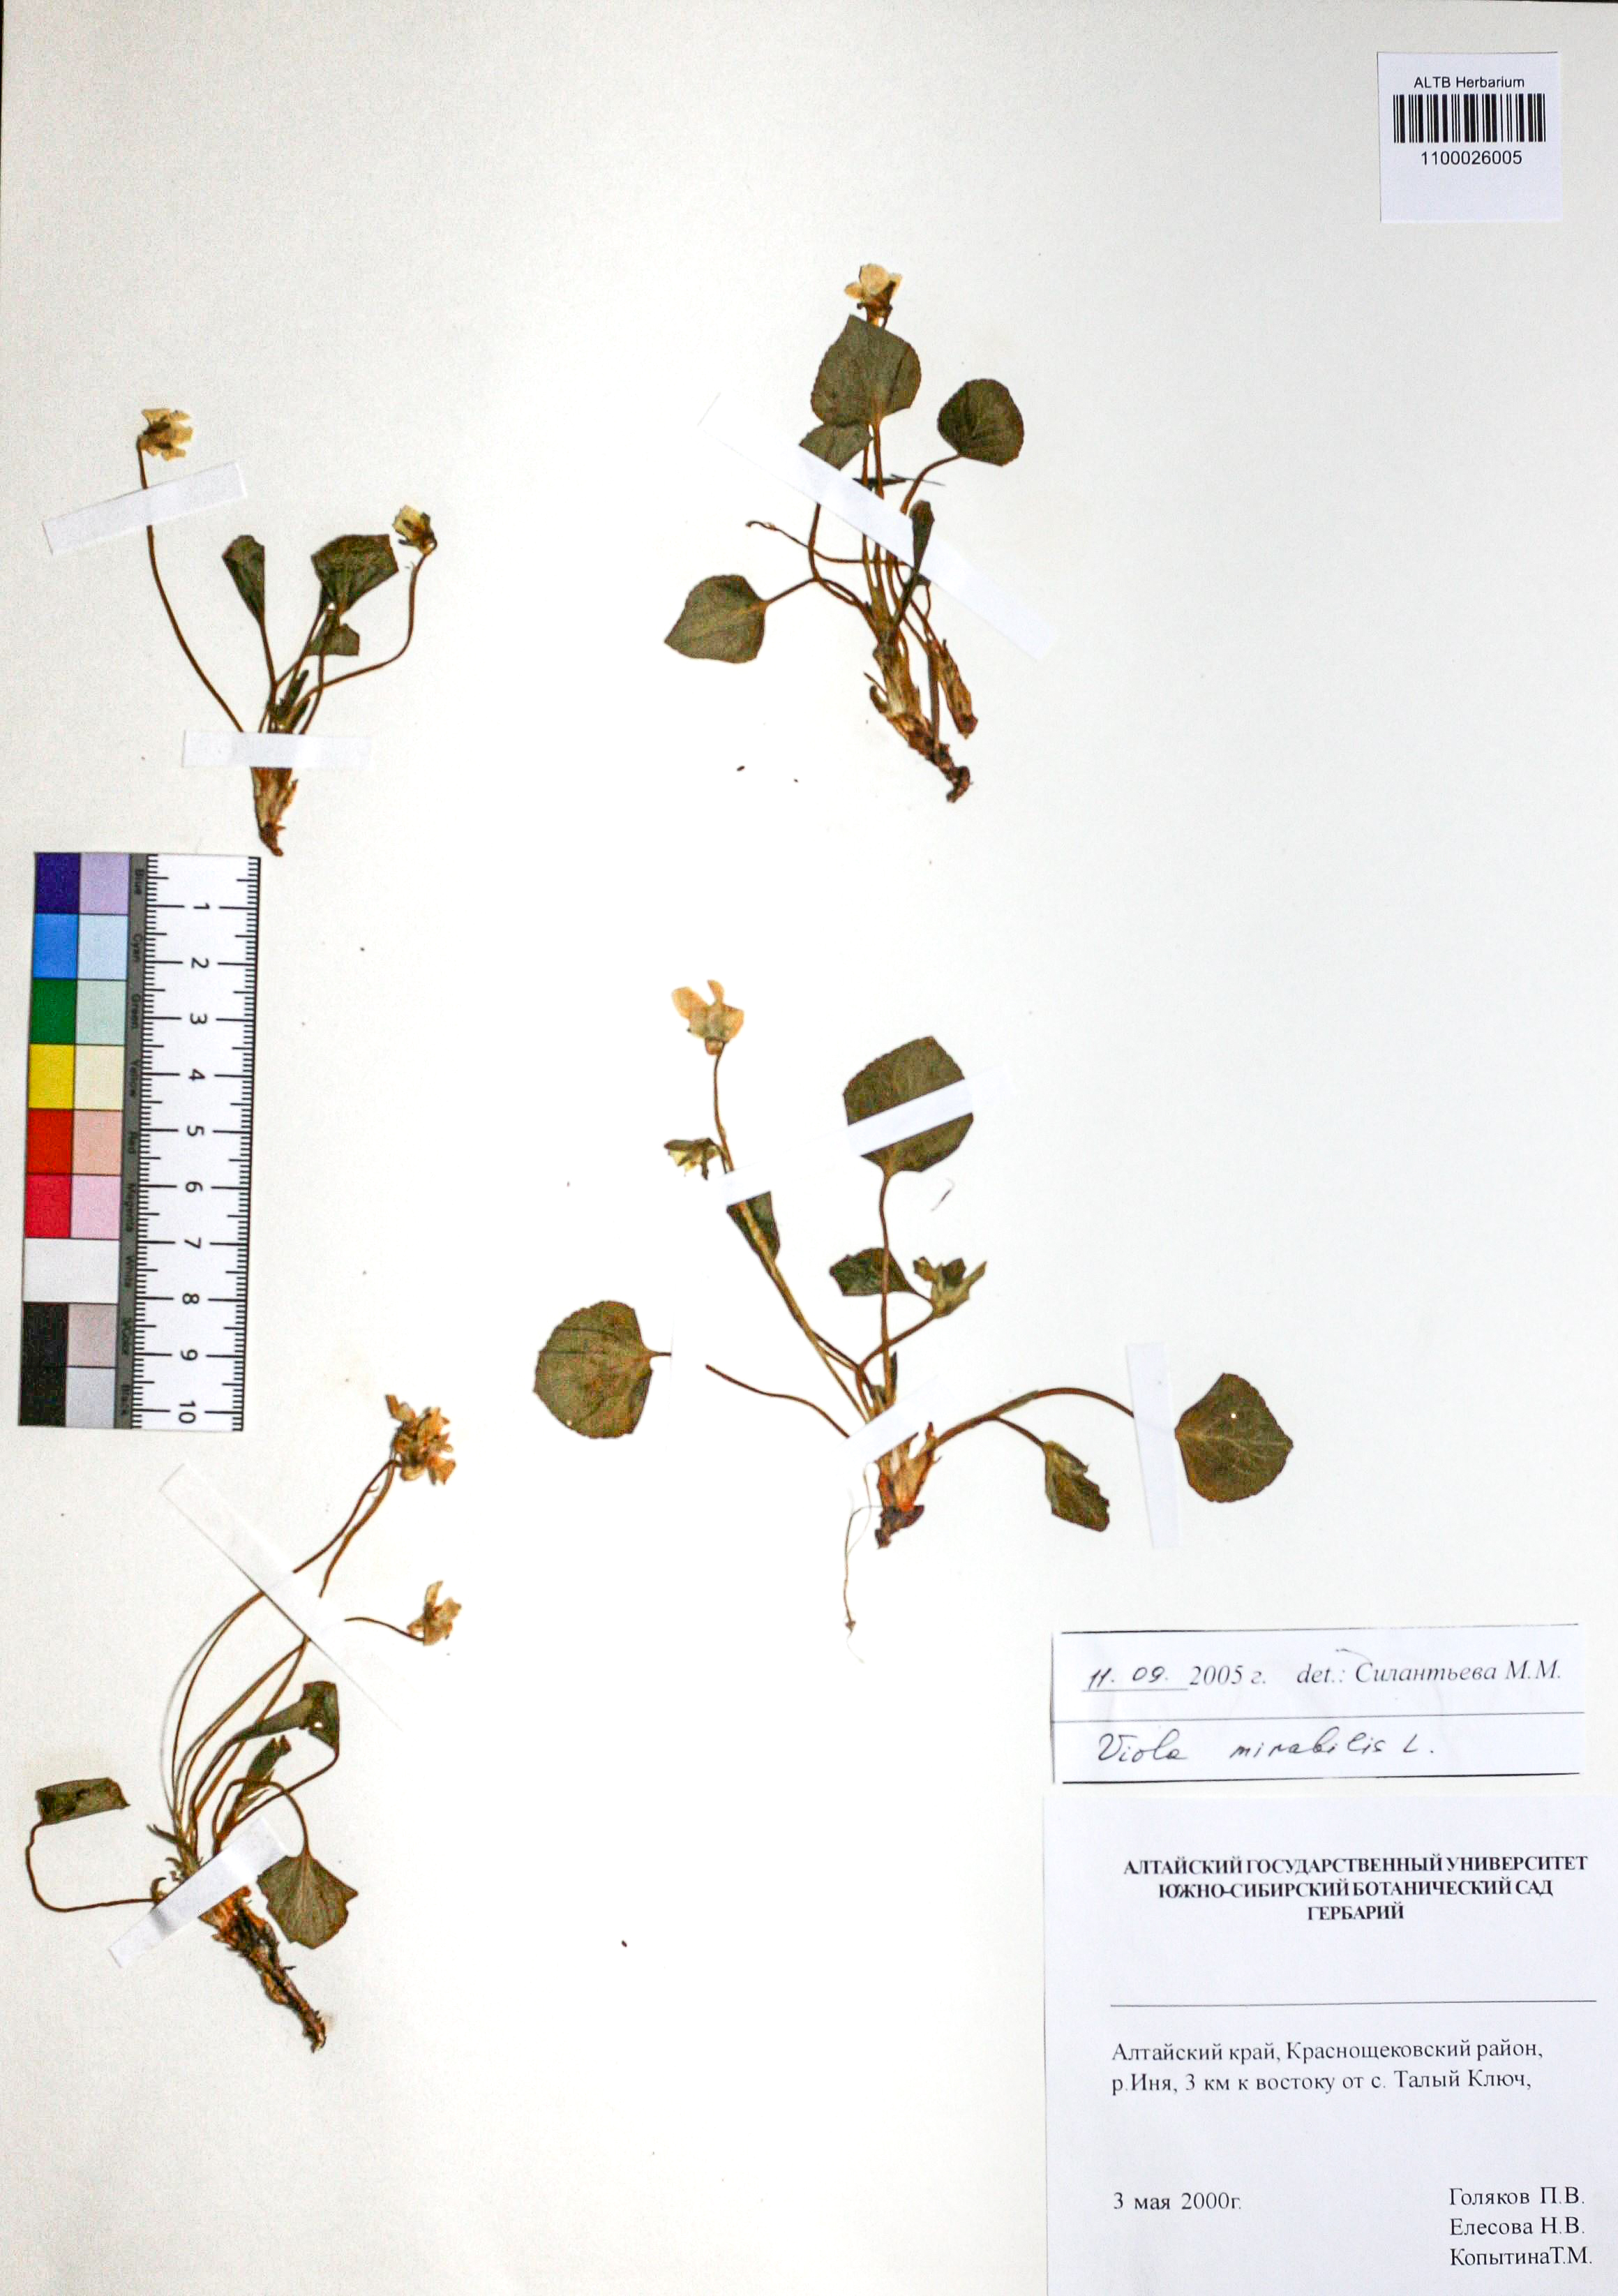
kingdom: Plantae
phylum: Tracheophyta
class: Magnoliopsida
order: Malpighiales
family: Violaceae
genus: Viola
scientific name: Viola mirabilis
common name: Wonder violet
